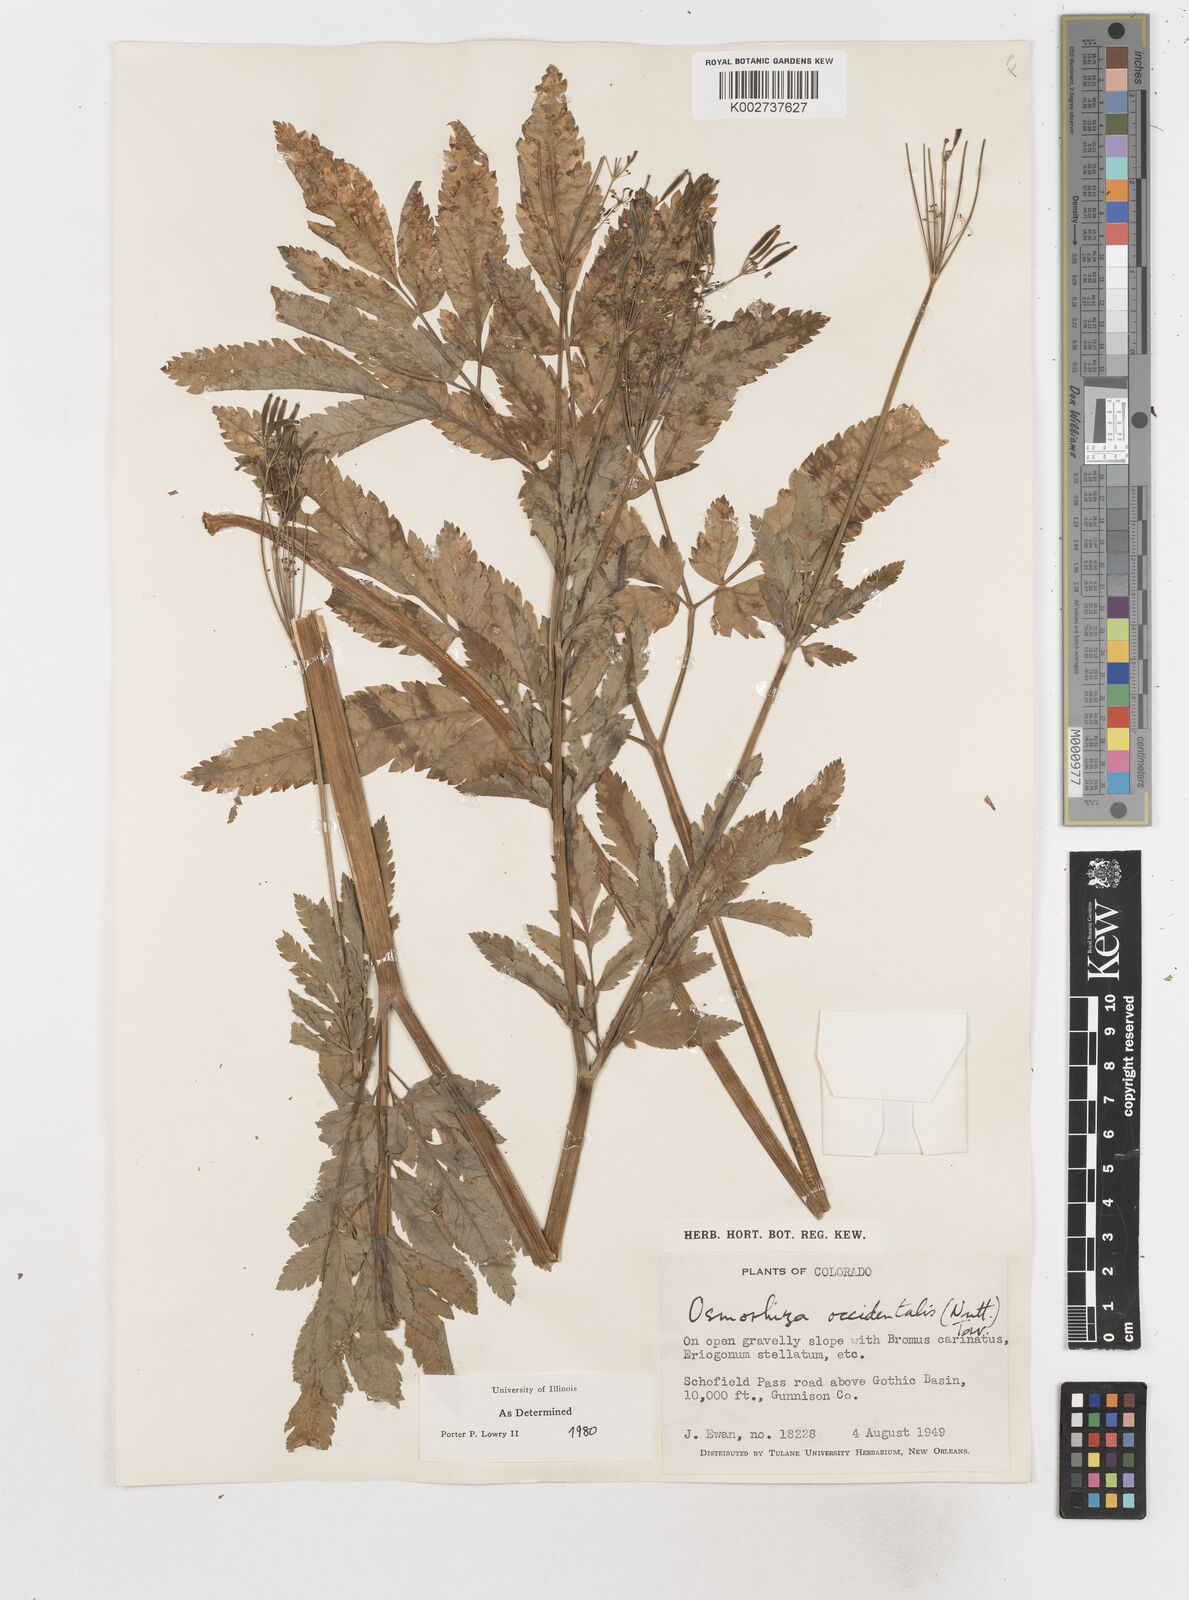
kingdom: Plantae
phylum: Tracheophyta
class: Magnoliopsida
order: Apiales
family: Apiaceae
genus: Osmorhiza
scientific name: Osmorhiza occidentalis
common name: Western sweet cicely
